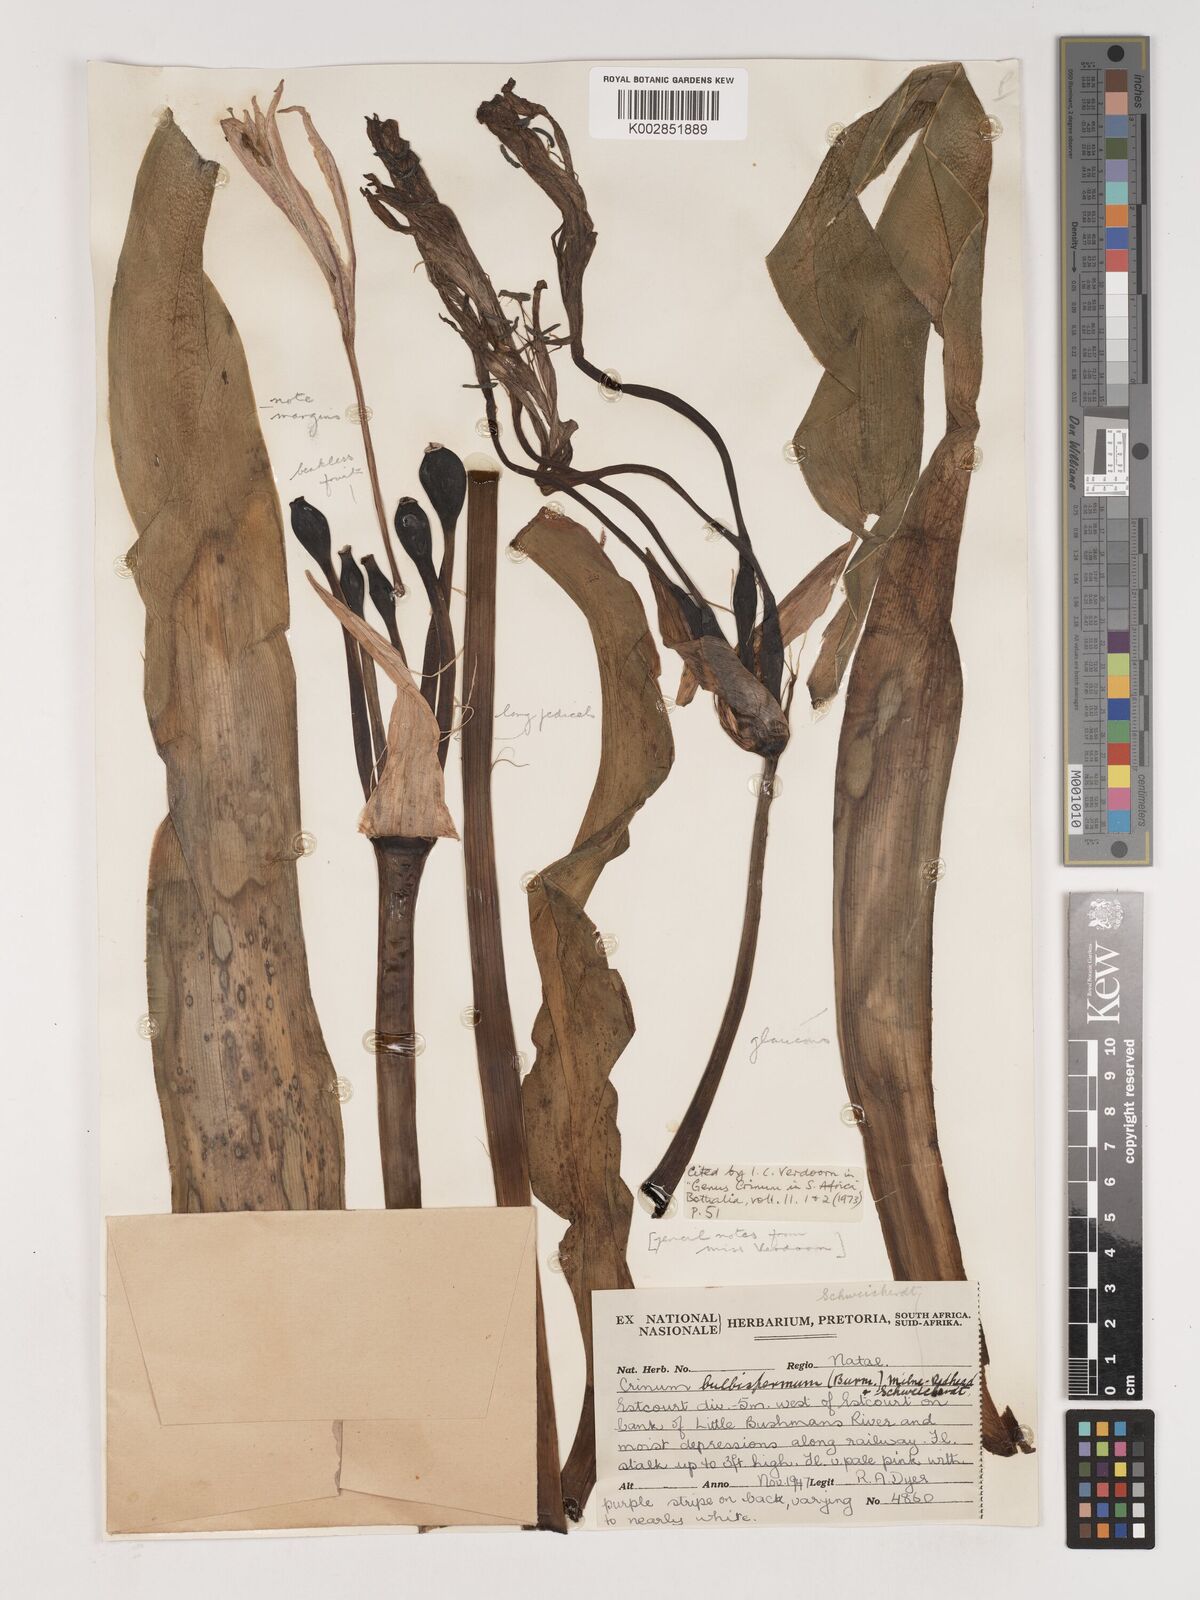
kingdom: Plantae
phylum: Tracheophyta
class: Liliopsida
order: Asparagales
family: Amaryllidaceae
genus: Crinum
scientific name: Crinum bulbispermum
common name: Hardy swamplily
